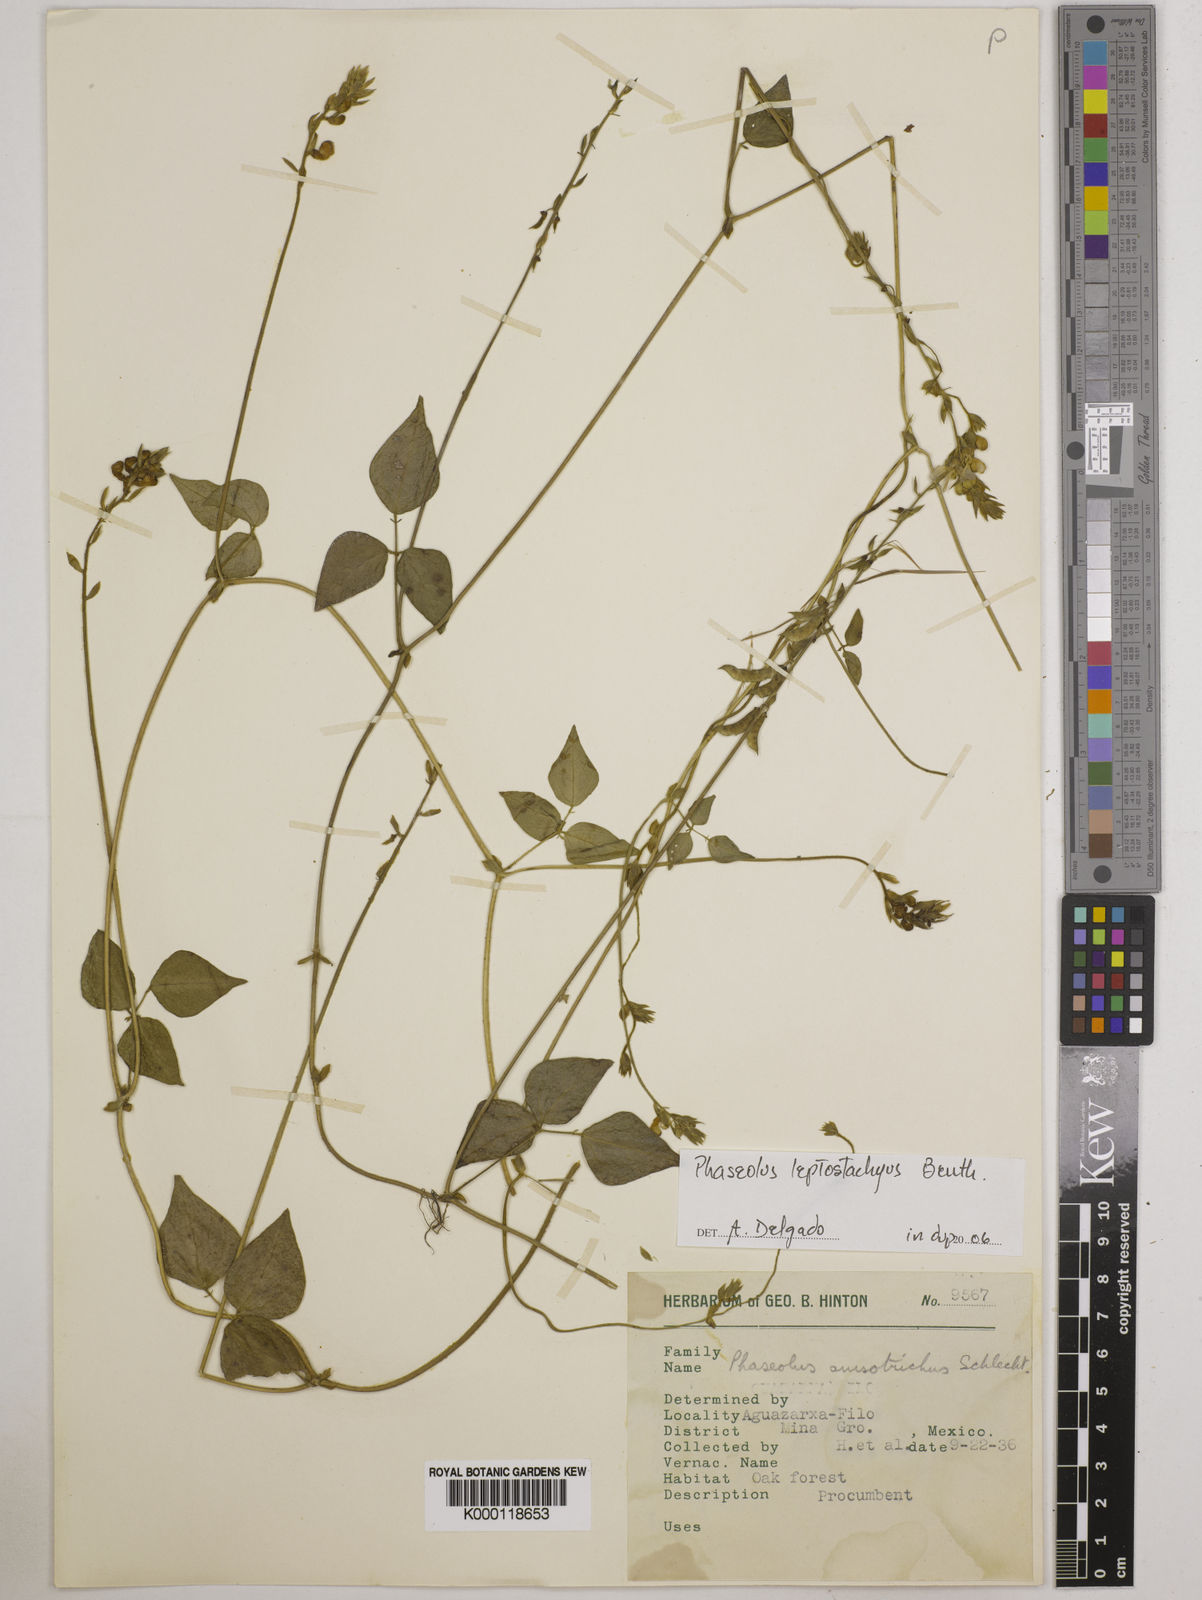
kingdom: Plantae
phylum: Tracheophyta
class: Magnoliopsida
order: Fabales
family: Fabaceae
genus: Phaseolus
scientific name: Phaseolus
